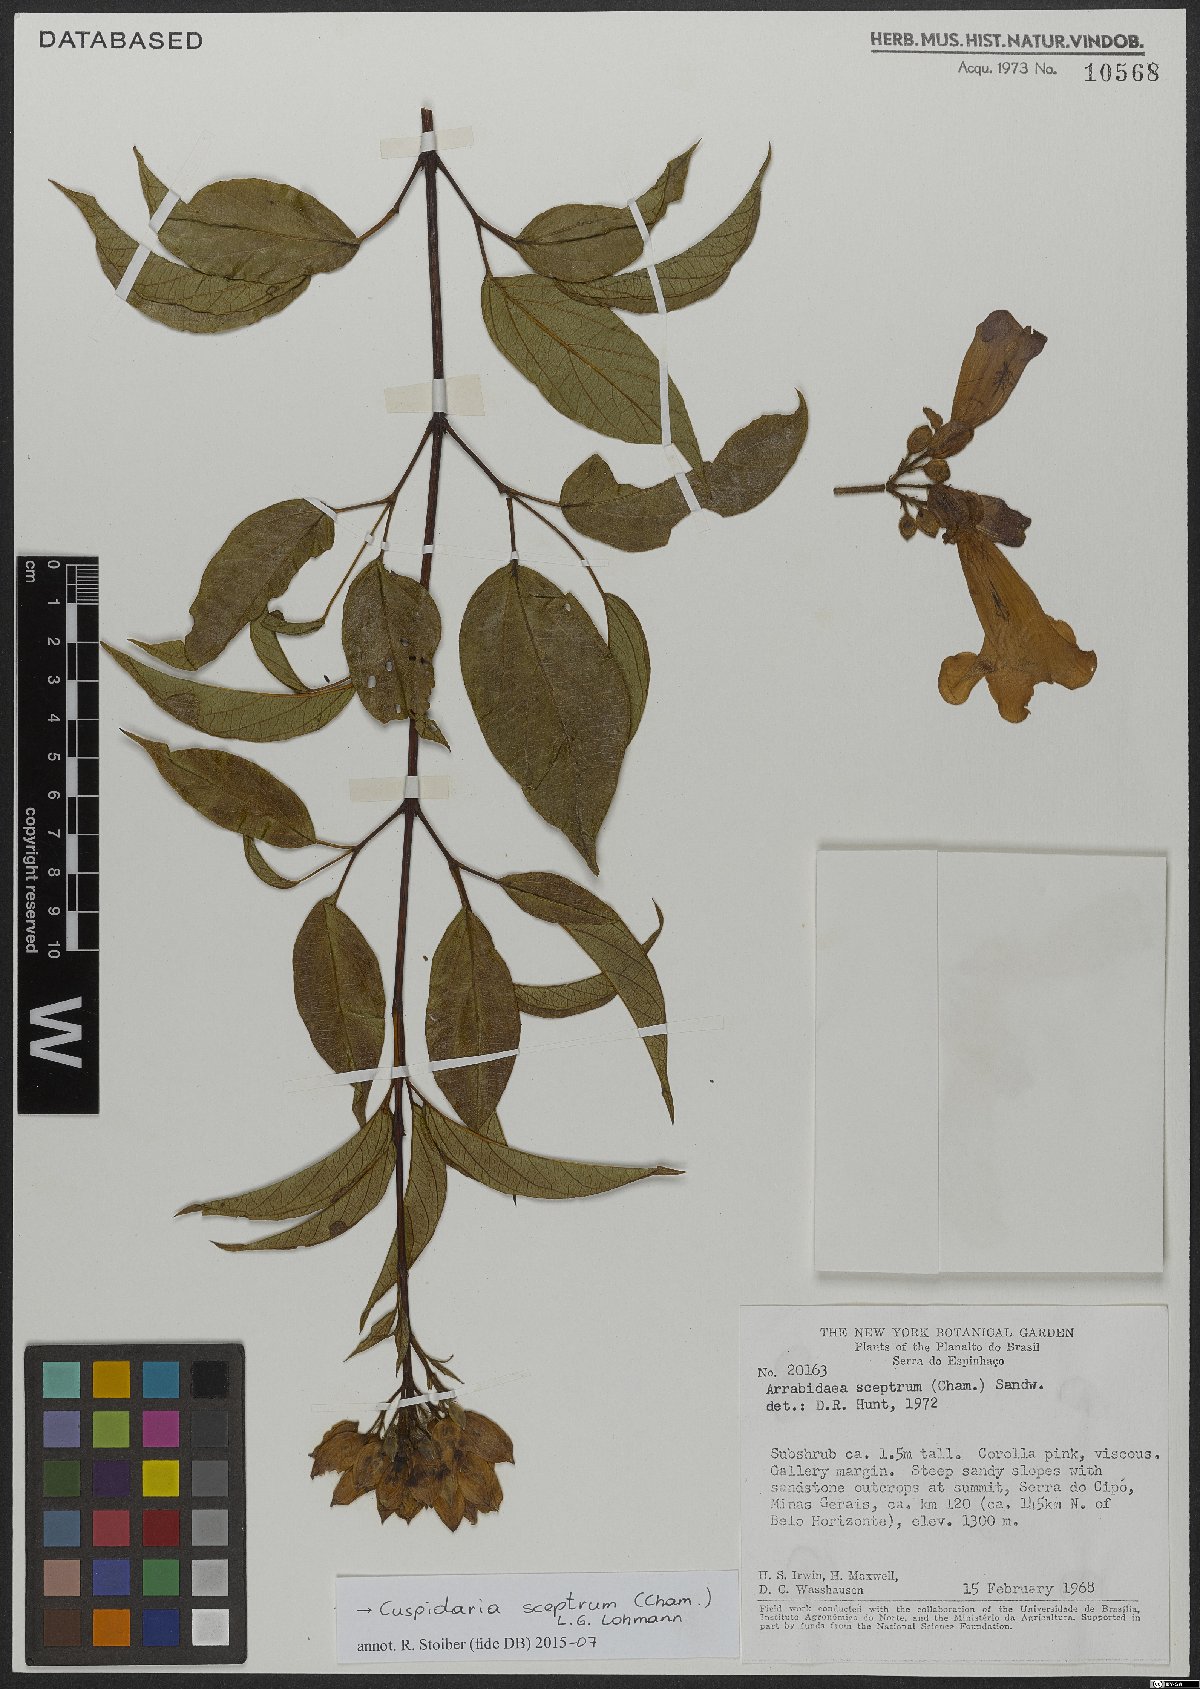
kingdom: Plantae
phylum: Tracheophyta
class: Magnoliopsida
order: Lamiales
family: Bignoniaceae
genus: Cuspidaria
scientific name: Cuspidaria sceptrum
